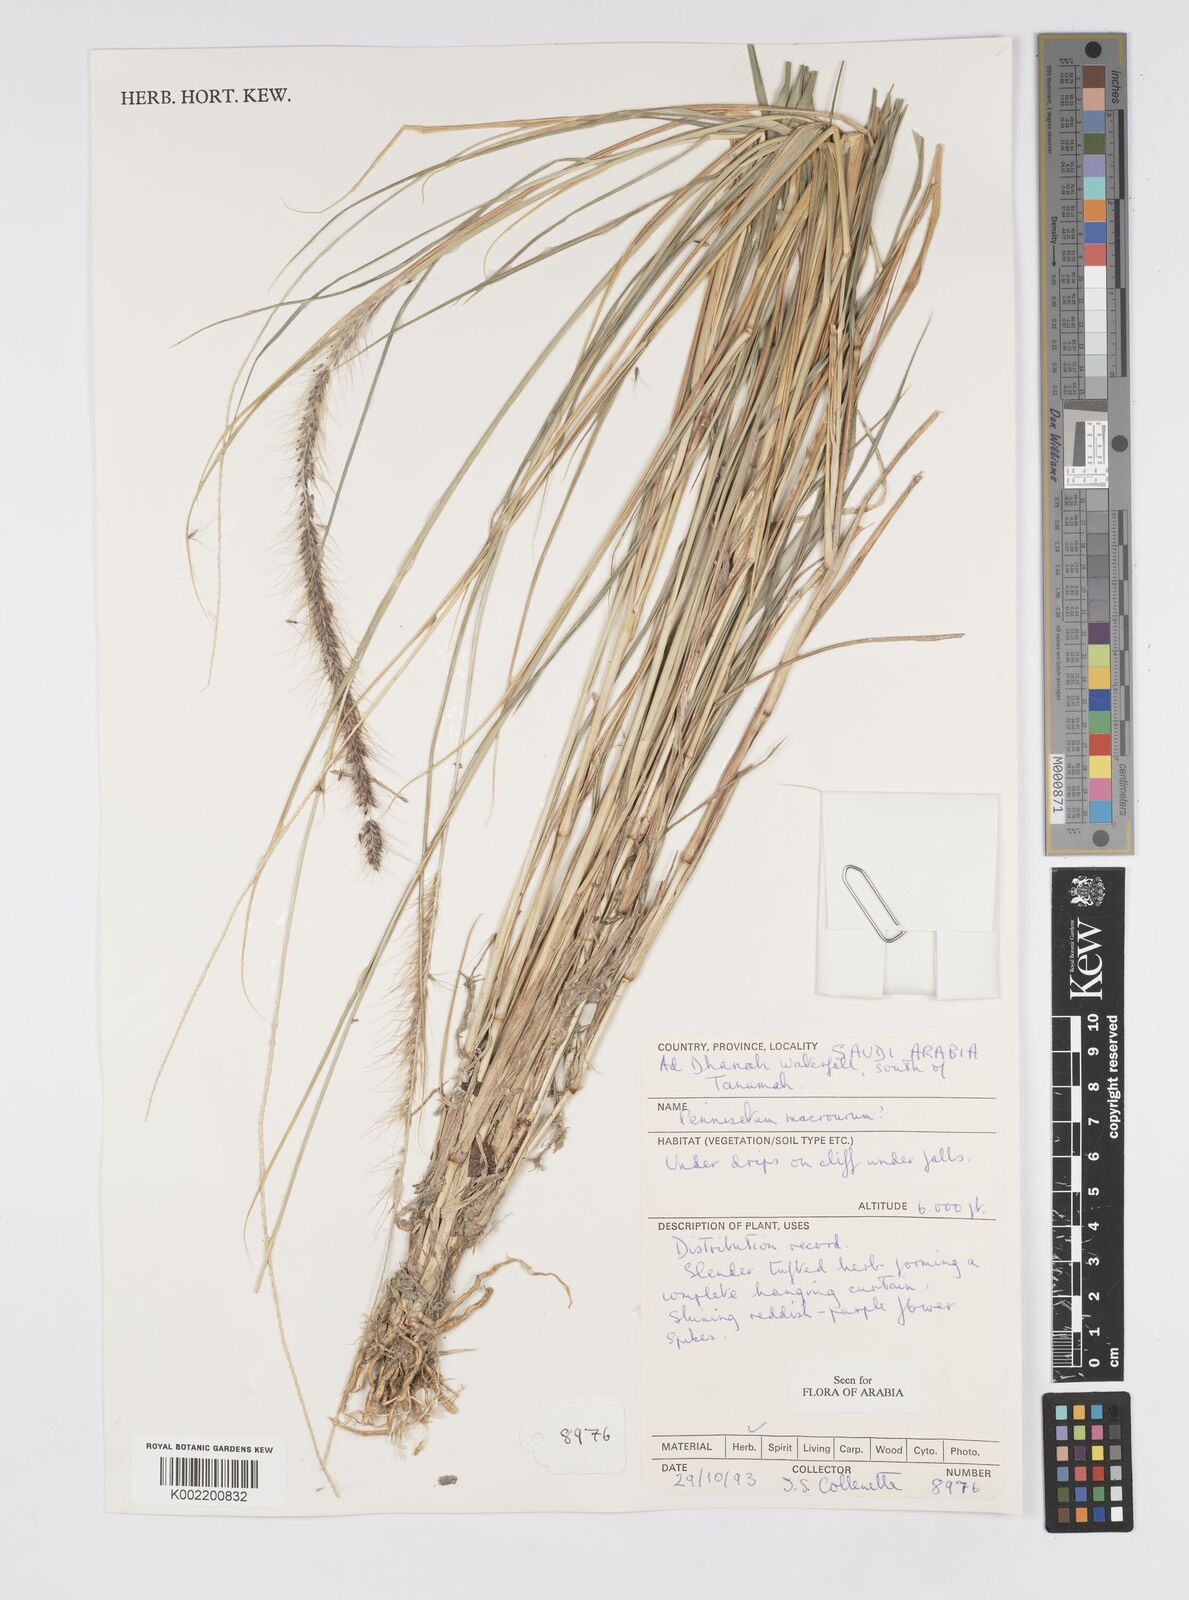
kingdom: Plantae
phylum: Tracheophyta
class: Liliopsida
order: Poales
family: Poaceae
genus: Cenchrus
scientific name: Cenchrus caudatus
